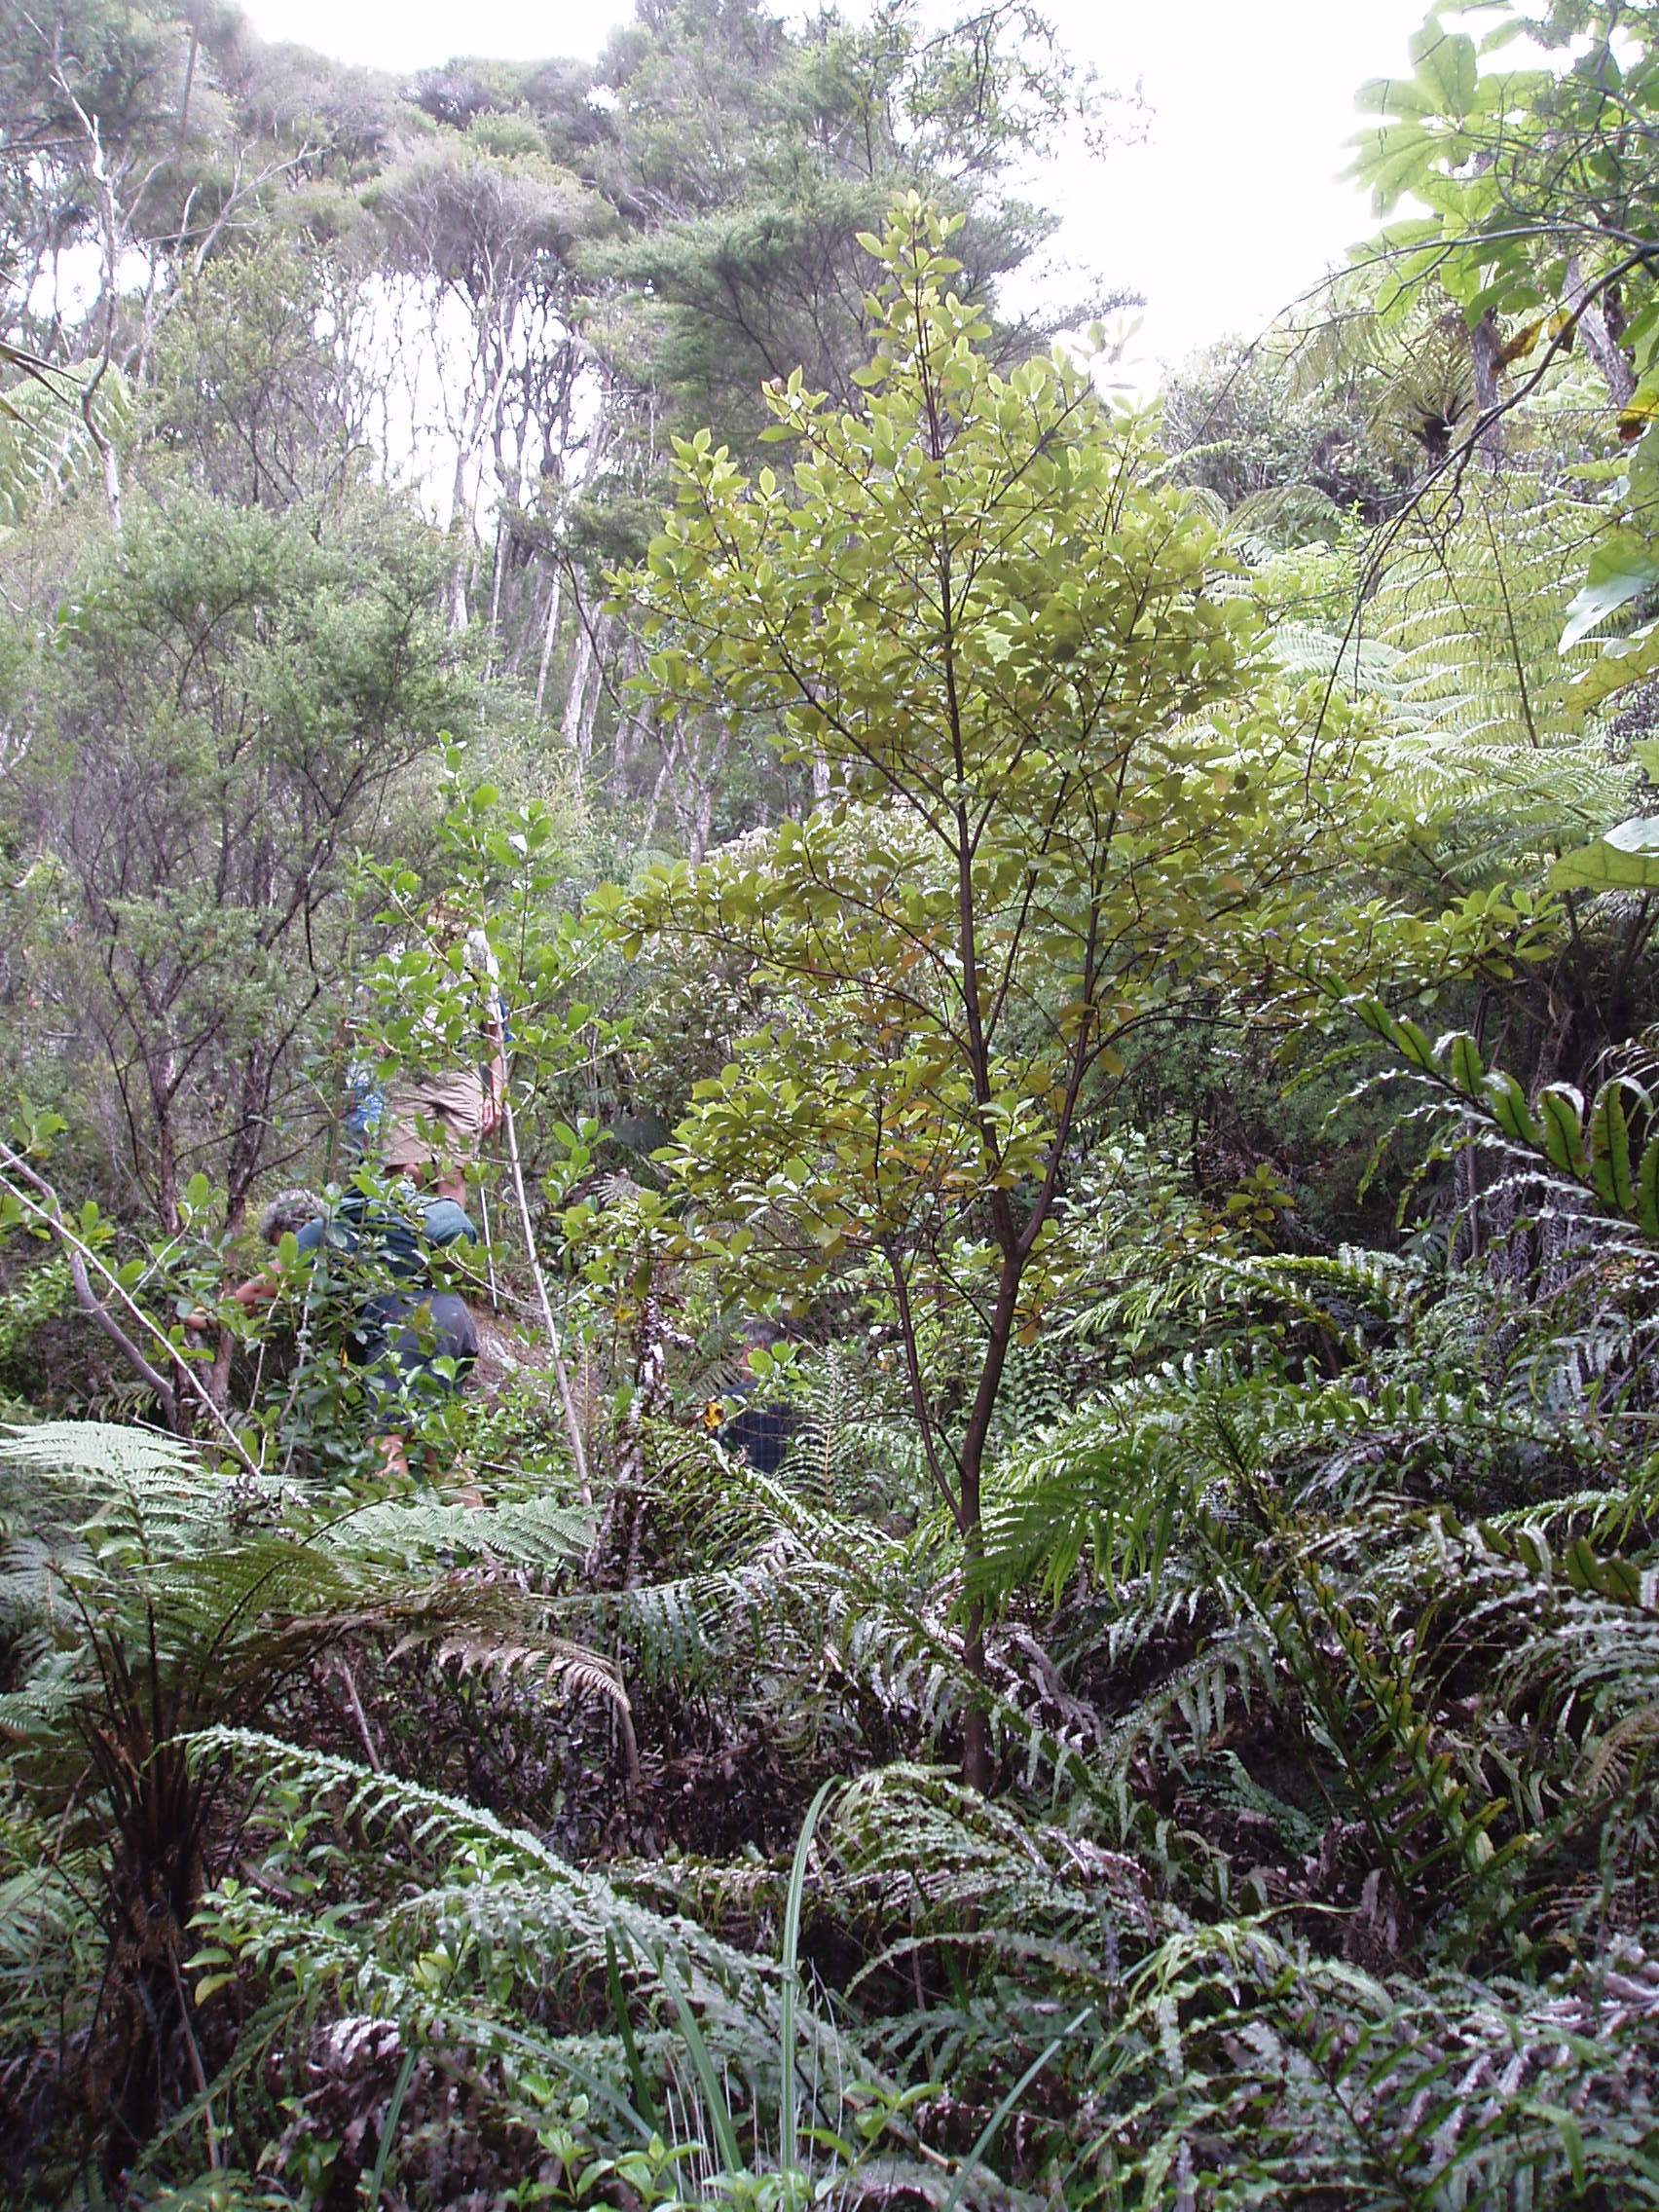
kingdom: Plantae
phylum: Tracheophyta
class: Magnoliopsida
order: Chloranthales
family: Chloranthaceae
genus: Ascarina
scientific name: Ascarina lucida
